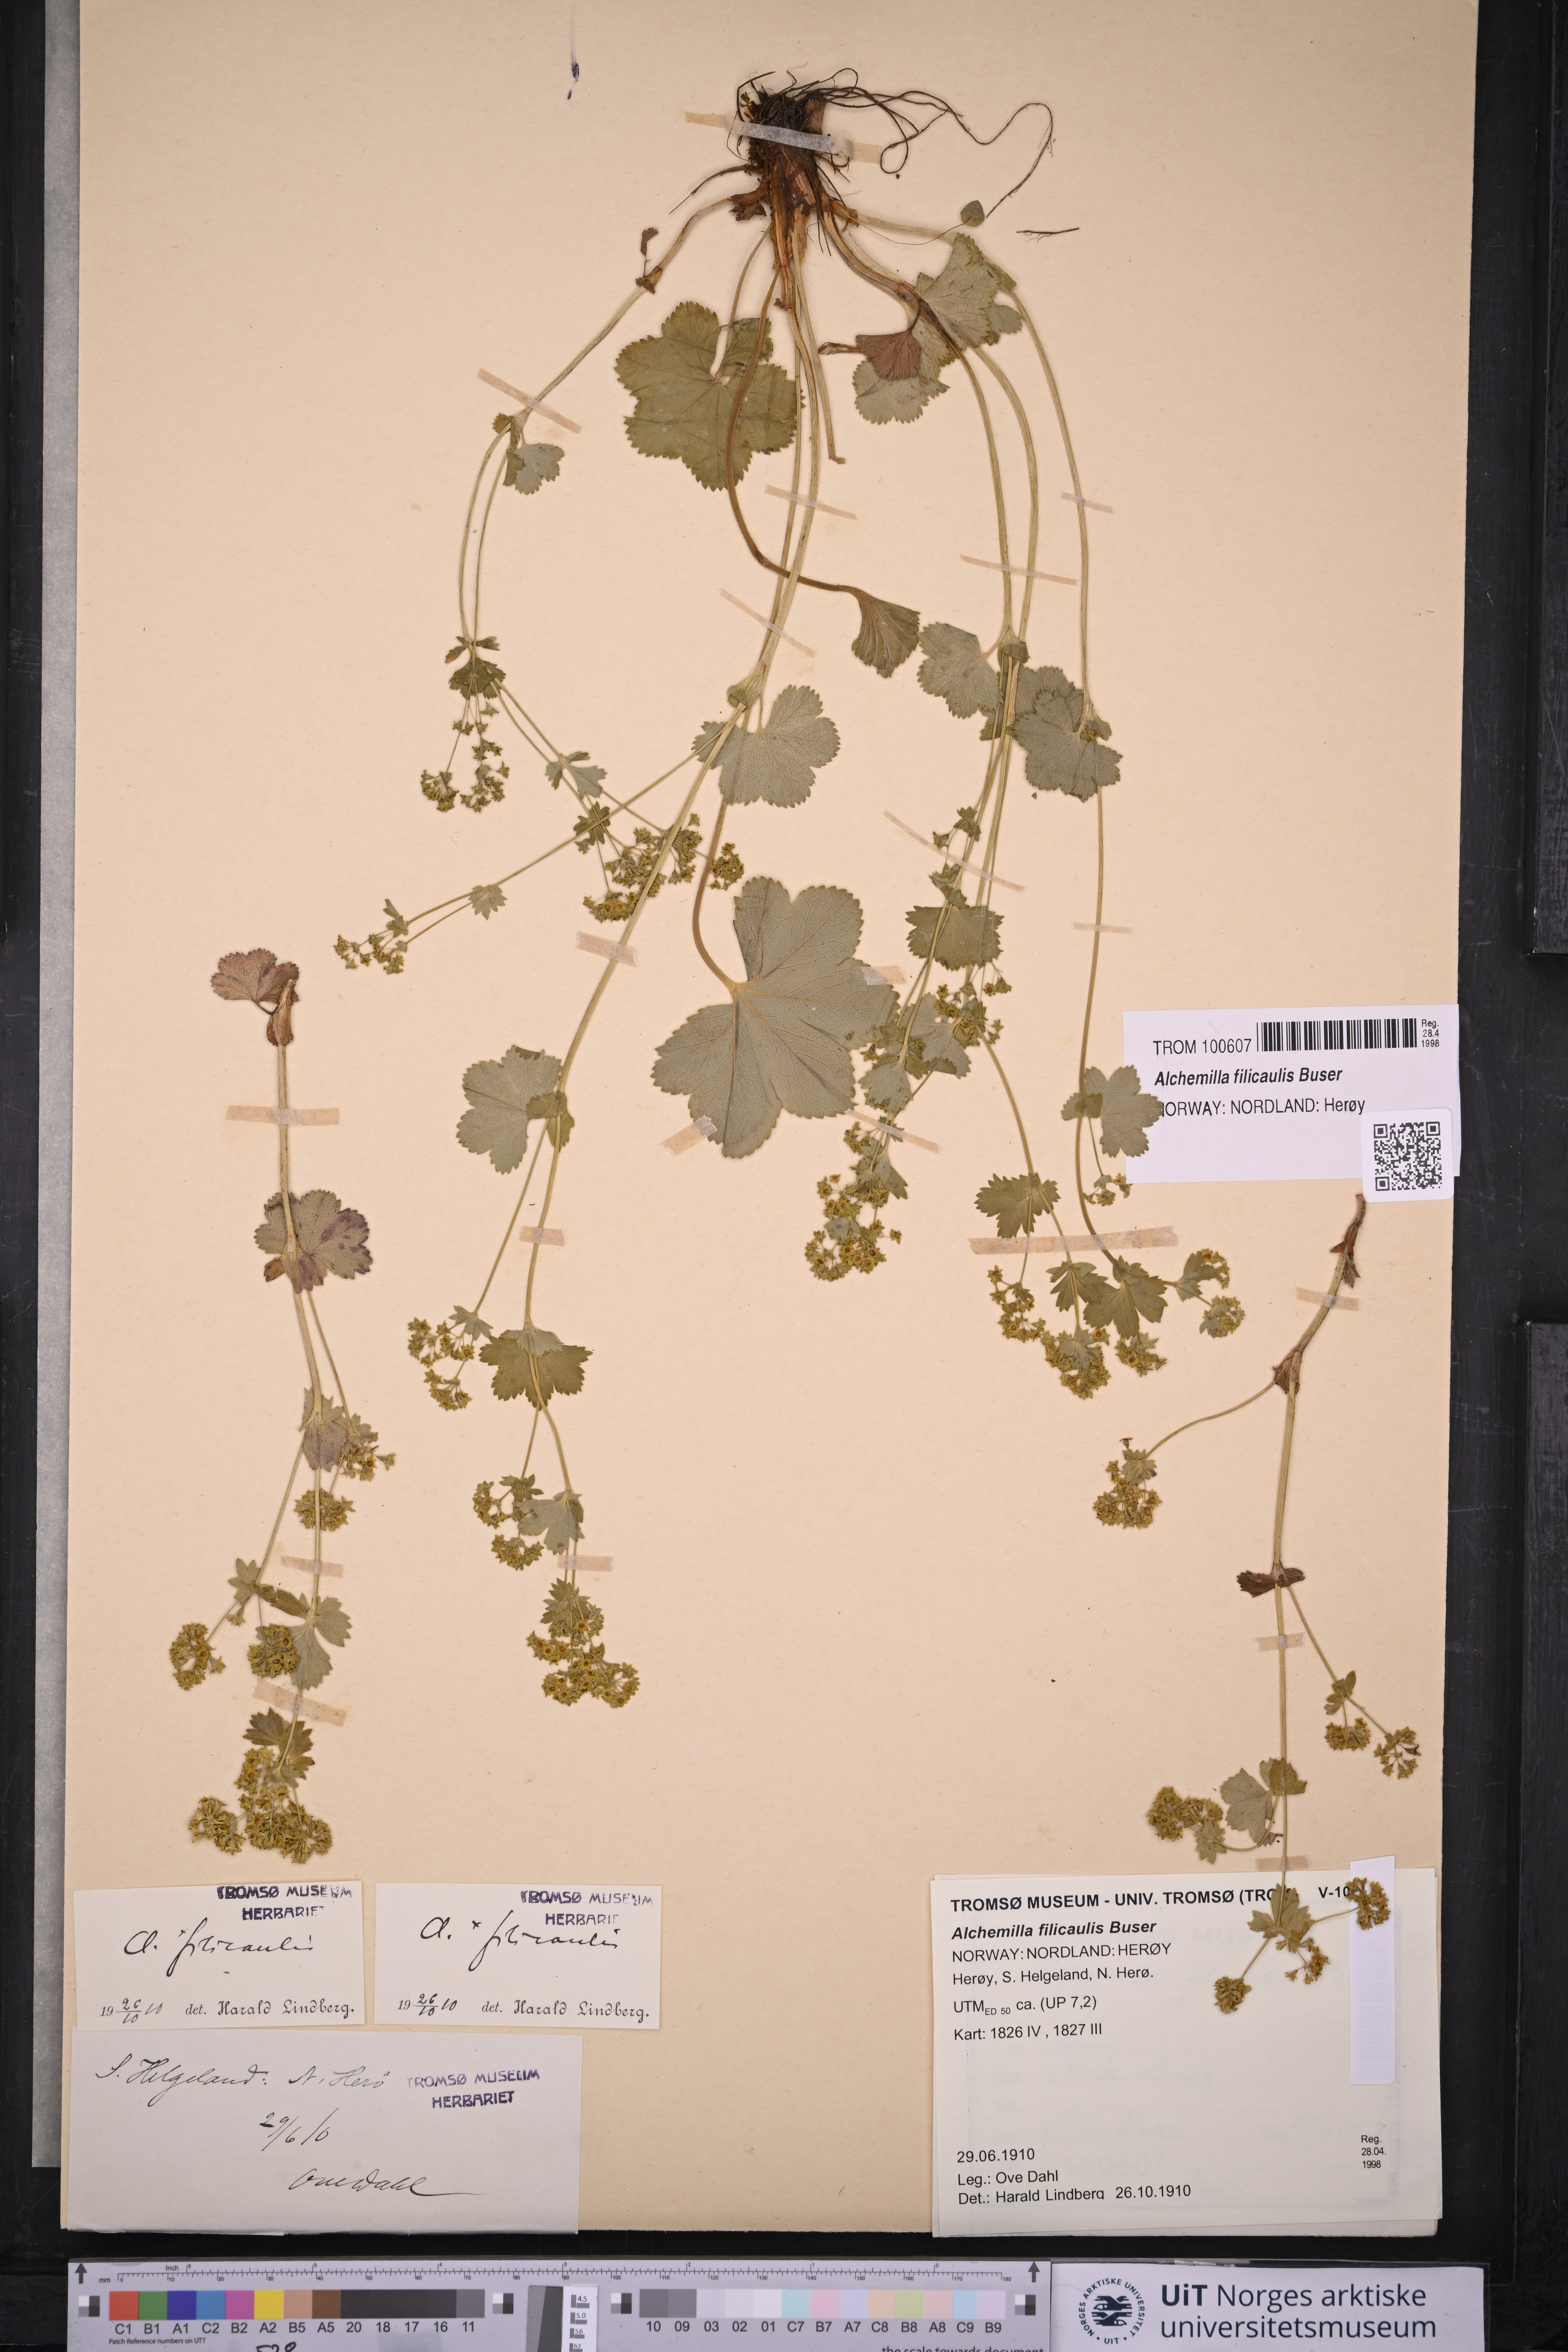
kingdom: Plantae
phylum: Tracheophyta
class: Magnoliopsida
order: Rosales
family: Rosaceae
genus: Alchemilla
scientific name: Alchemilla filicaulis
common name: Hairy lady's-mantle
